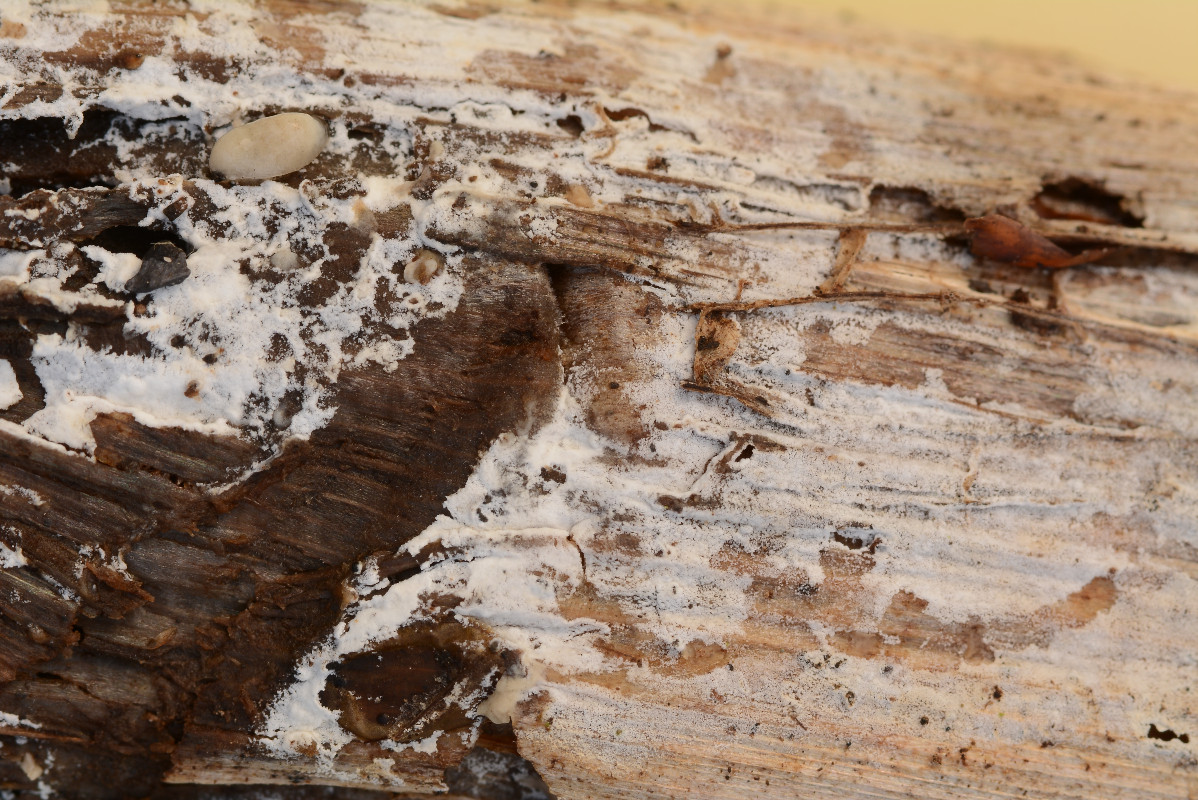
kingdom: Fungi
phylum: Basidiomycota
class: Agaricomycetes
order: Corticiales
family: Corticiaceae
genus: Lyomyces
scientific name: Lyomyces sambuci
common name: almindelig hyldehinde
